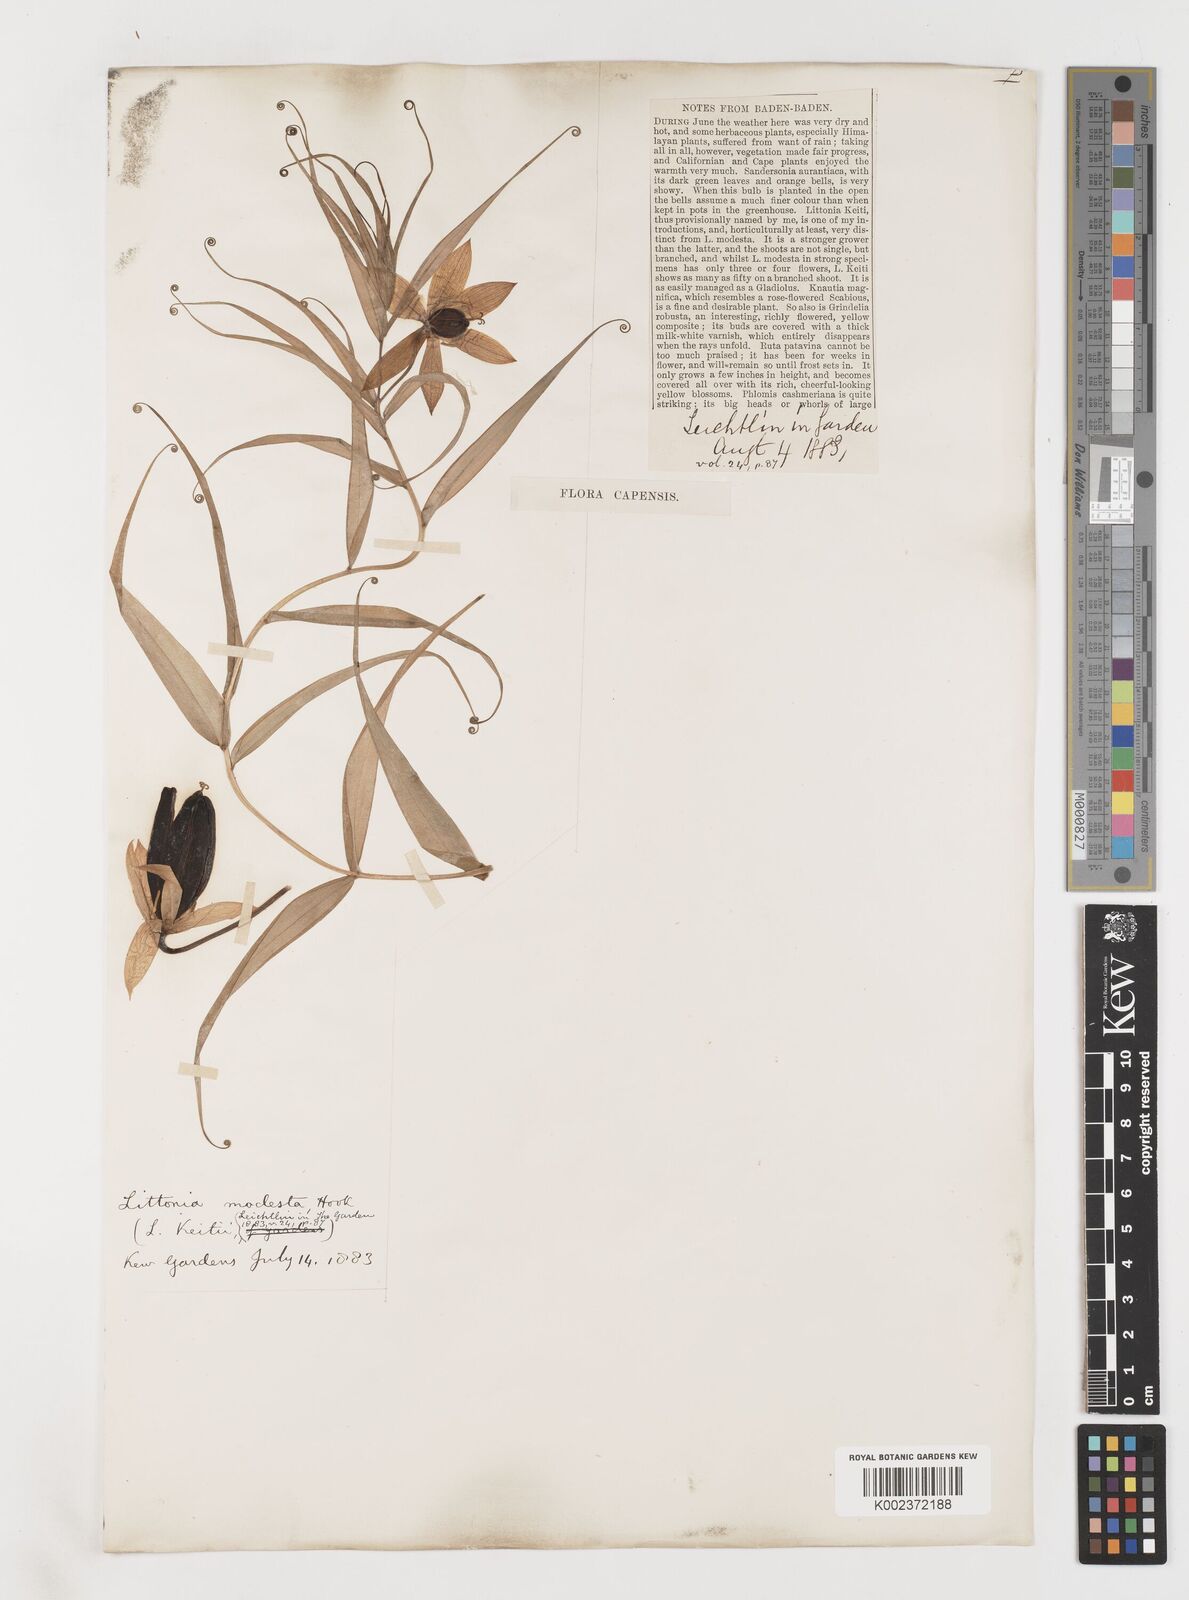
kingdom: Plantae
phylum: Tracheophyta
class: Liliopsida
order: Liliales
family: Colchicaceae
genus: Gloriosa
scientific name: Gloriosa modesta
